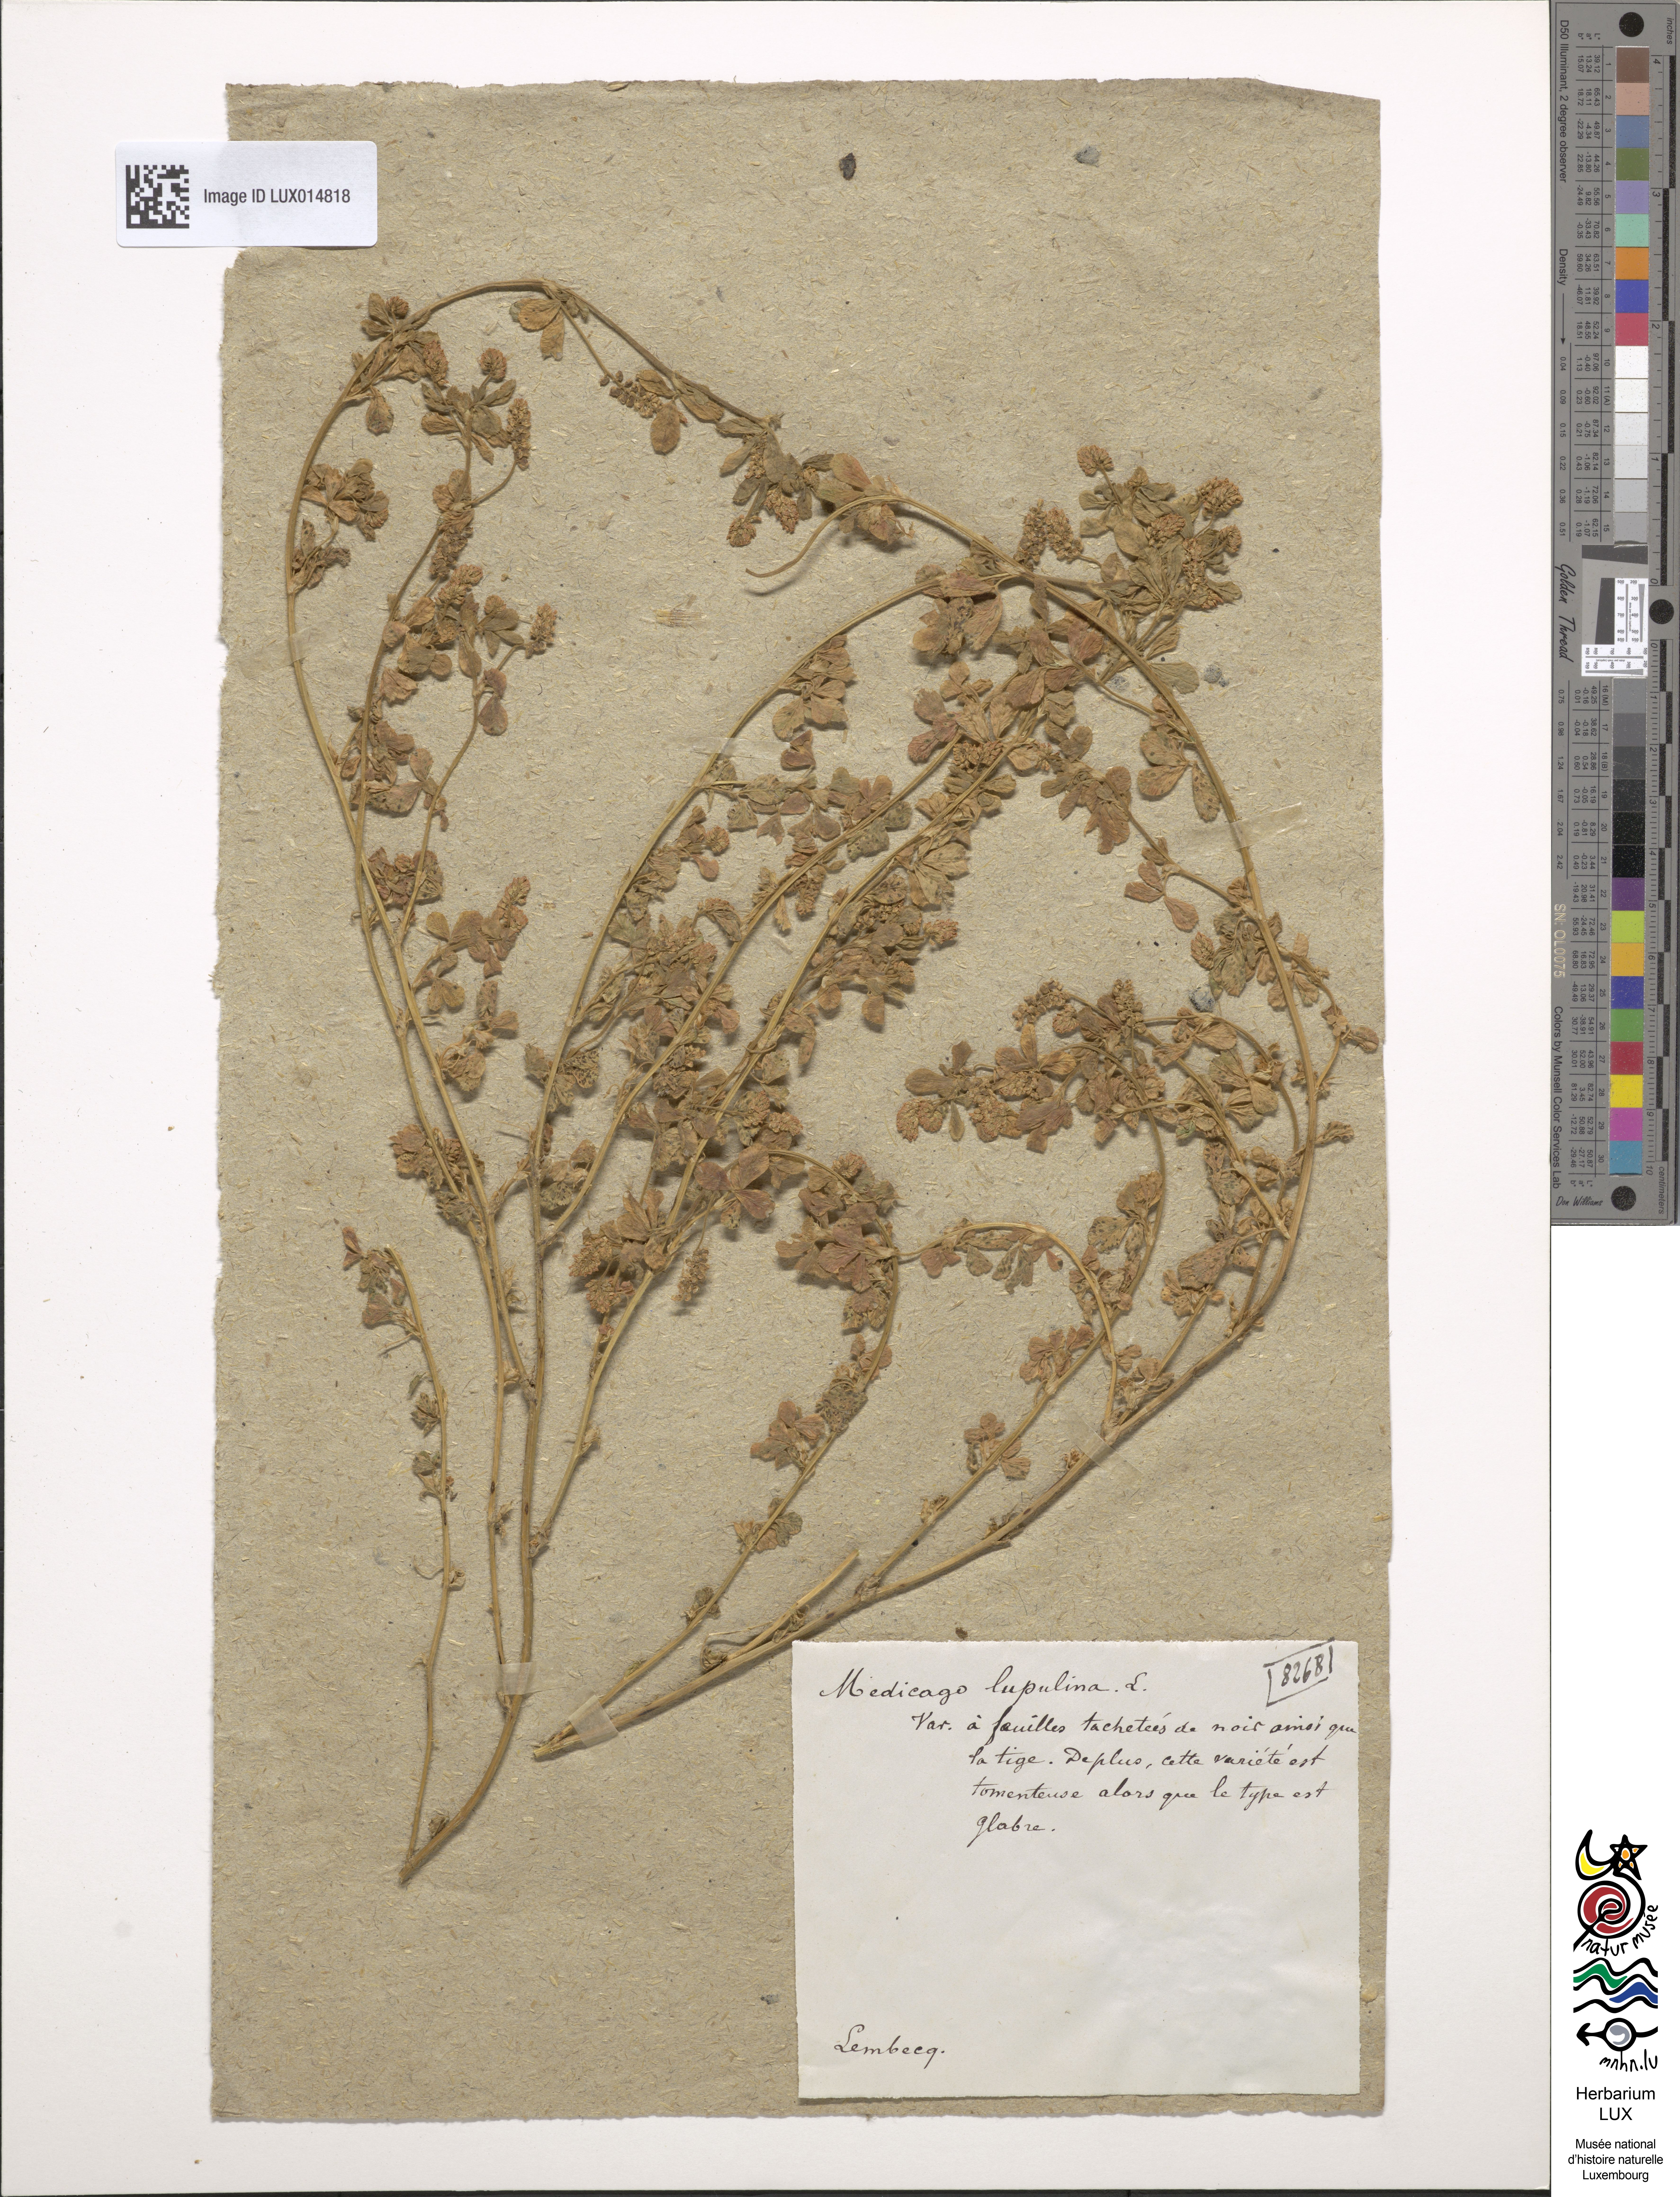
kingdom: Plantae
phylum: Tracheophyta
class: Magnoliopsida
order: Fabales
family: Fabaceae
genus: Medicago
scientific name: Medicago lupulina
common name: Black medick
